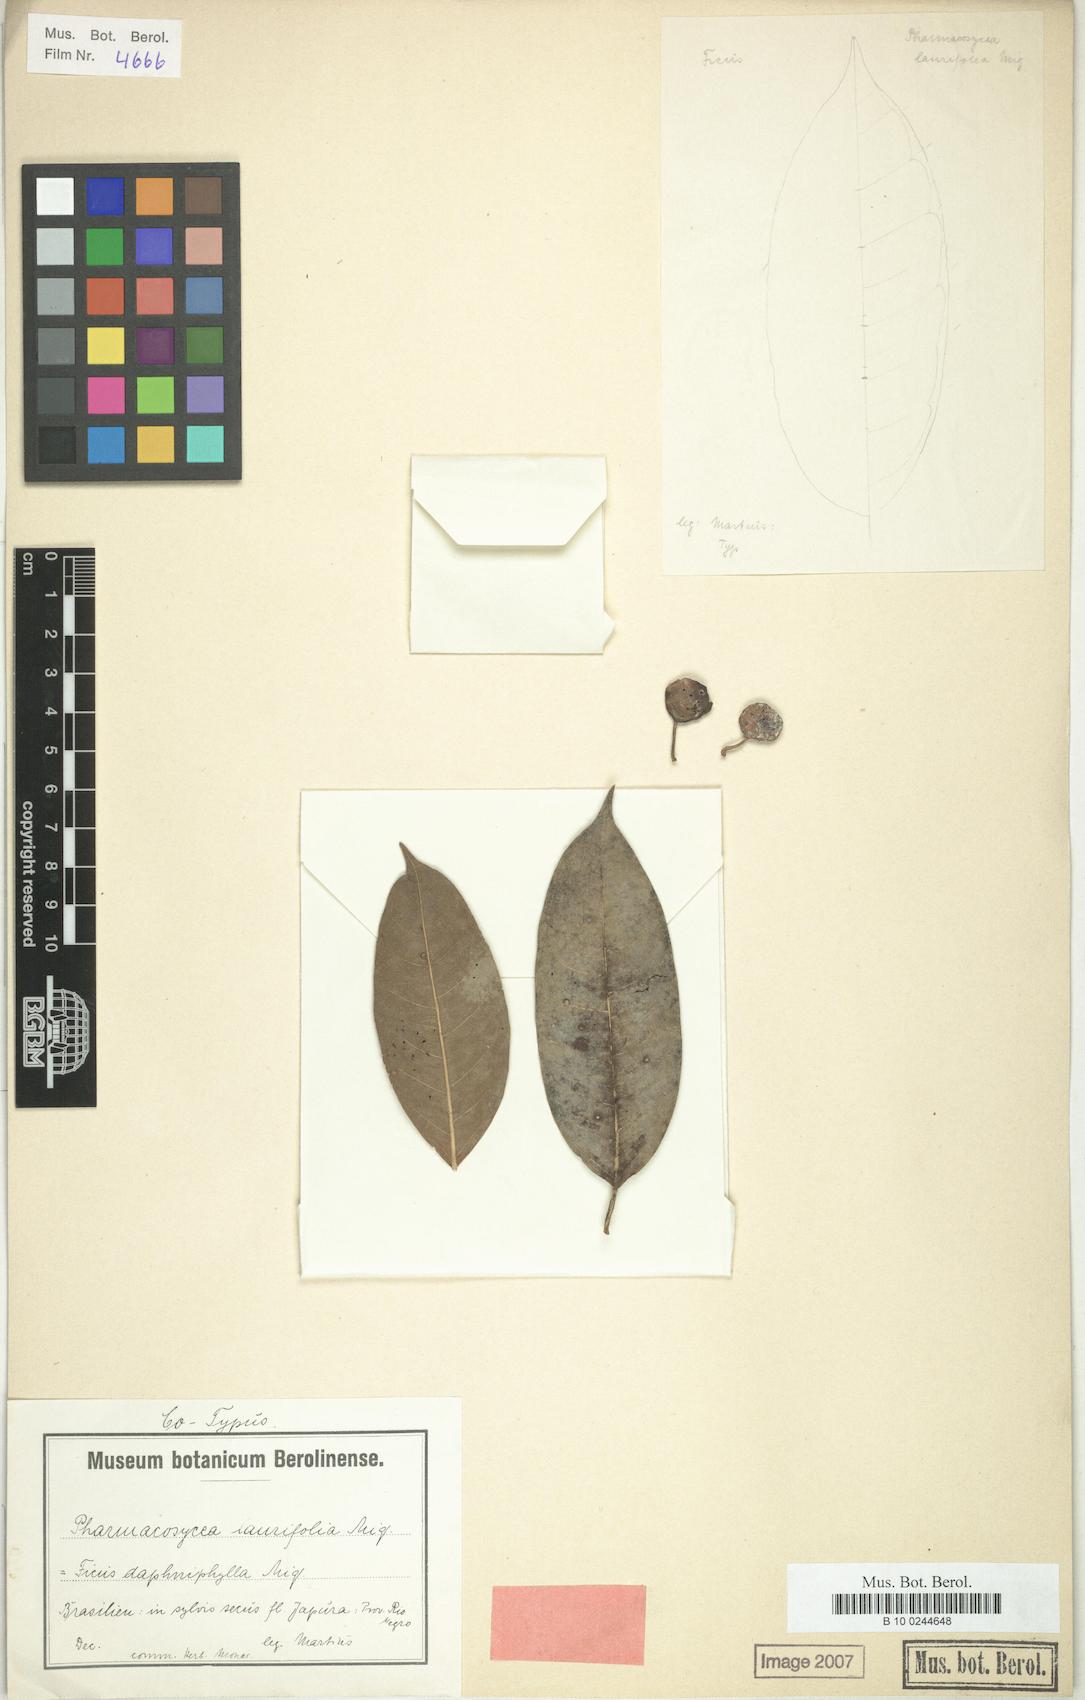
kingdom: Plantae
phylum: Tracheophyta
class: Magnoliopsida
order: Rosales
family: Moraceae
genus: Ficus
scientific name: Ficus laurifolia
